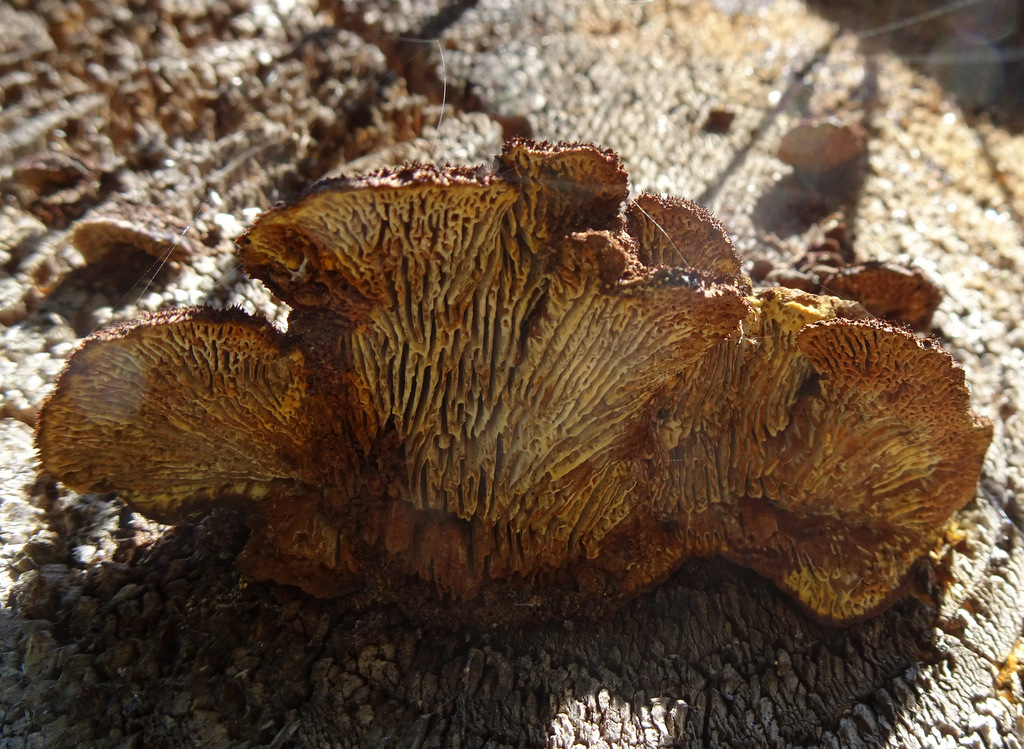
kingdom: Fungi
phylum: Basidiomycota
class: Agaricomycetes
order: Gloeophyllales
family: Gloeophyllaceae
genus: Gloeophyllum
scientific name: Gloeophyllum sepiarium
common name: fyrre-korkhat
